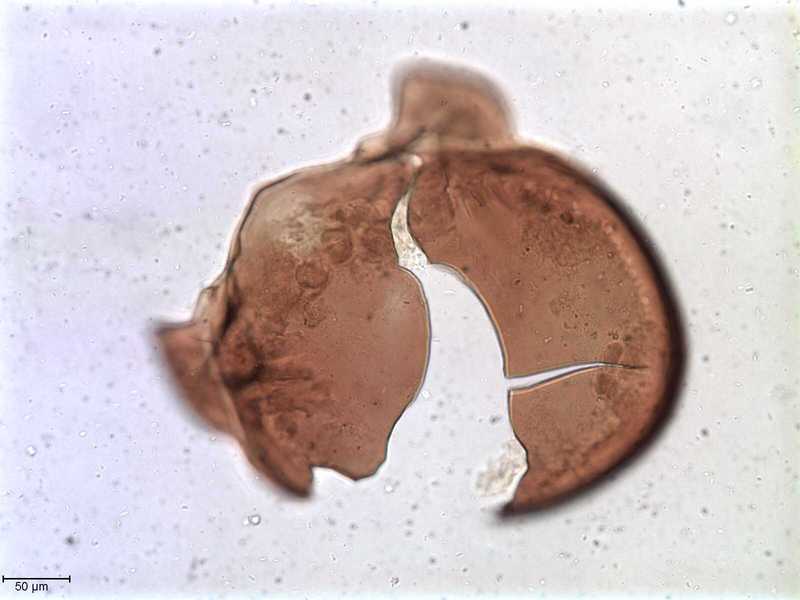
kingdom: Animalia
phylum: Arthropoda
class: Arachnida
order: Sarcoptiformes
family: Tegoribatidae
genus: Plakoribates
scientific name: Plakoribates multicuspidatus
